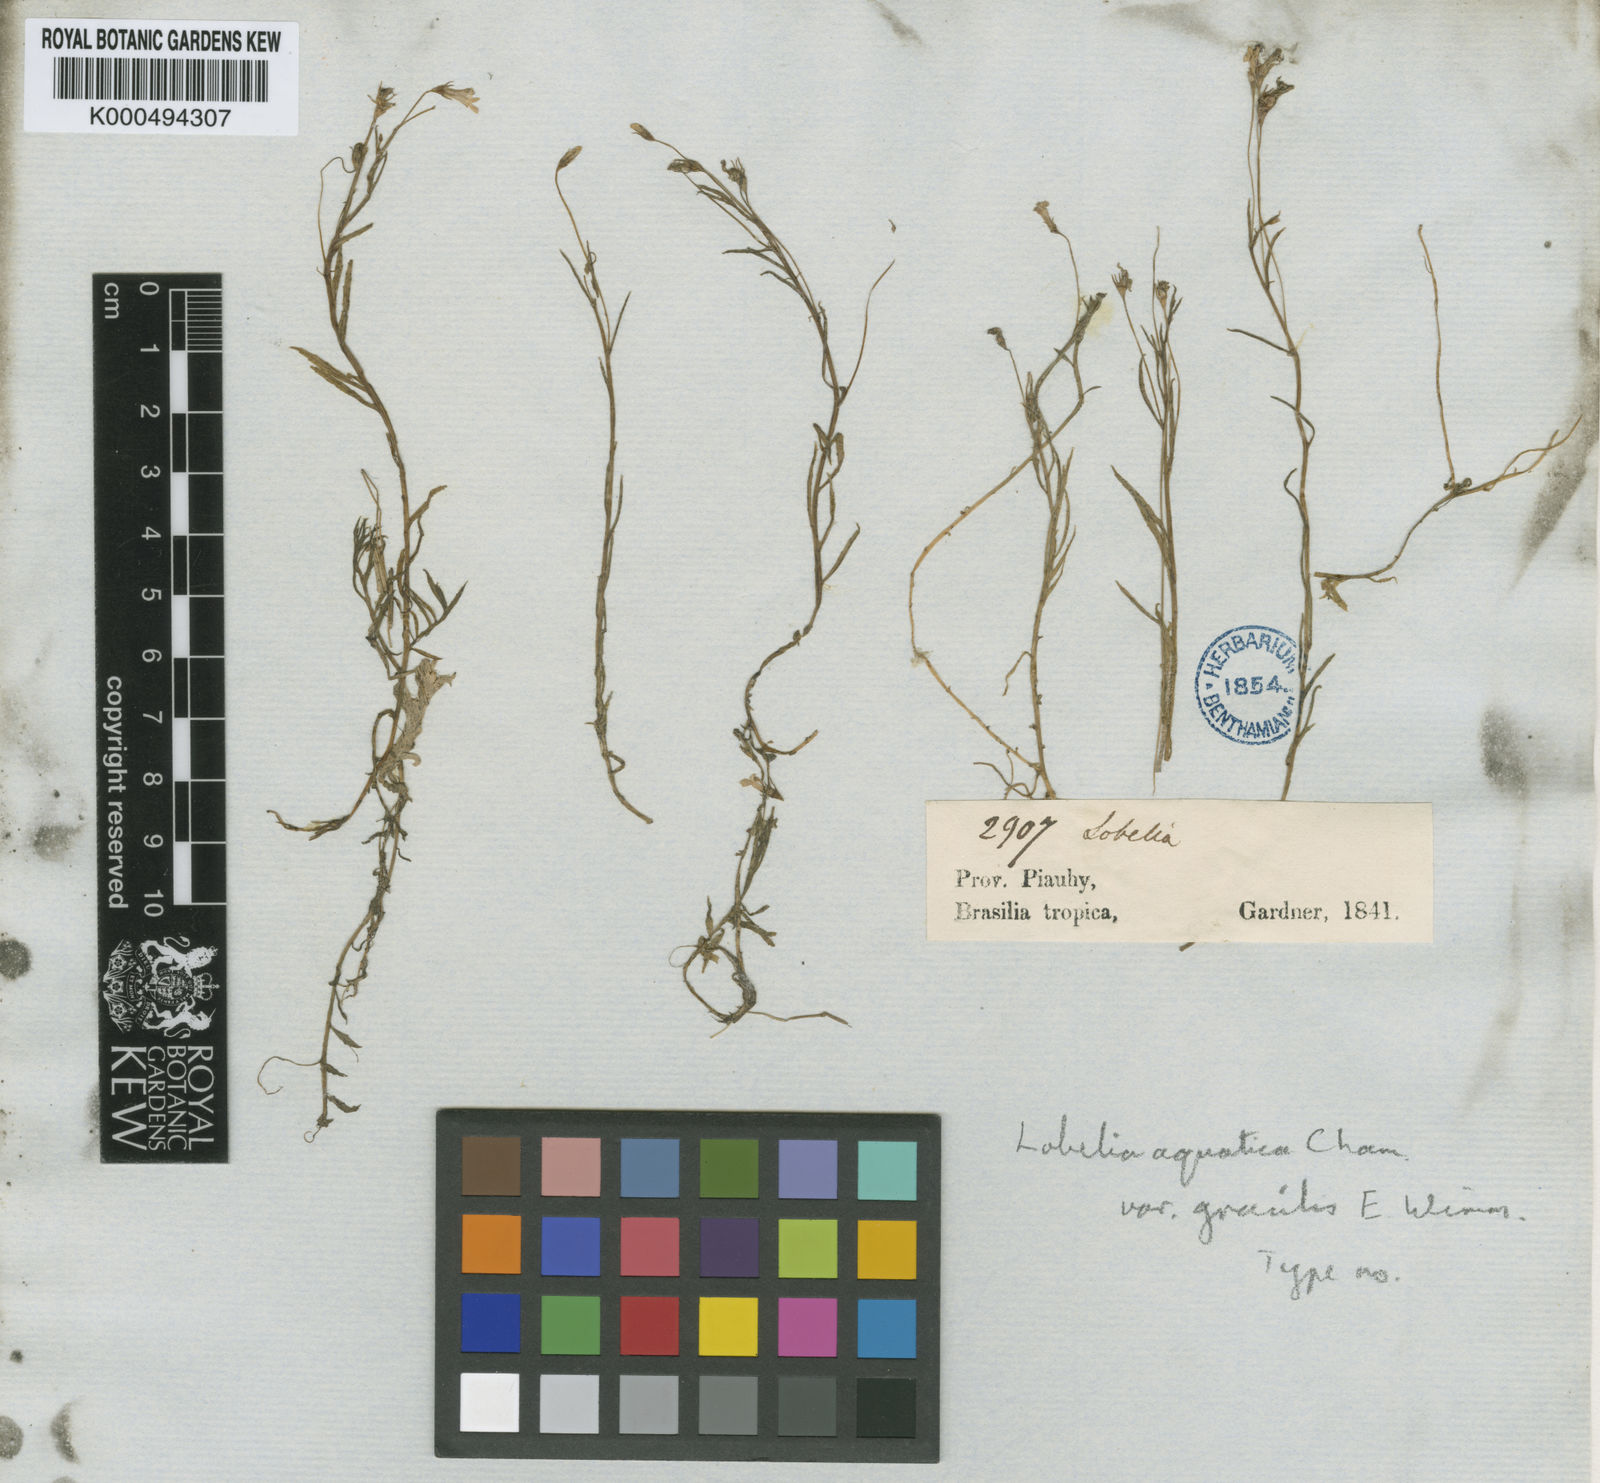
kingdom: Plantae
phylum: Tracheophyta
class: Magnoliopsida
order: Asterales
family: Campanulaceae
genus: Lobelia
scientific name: Lobelia aquatica
